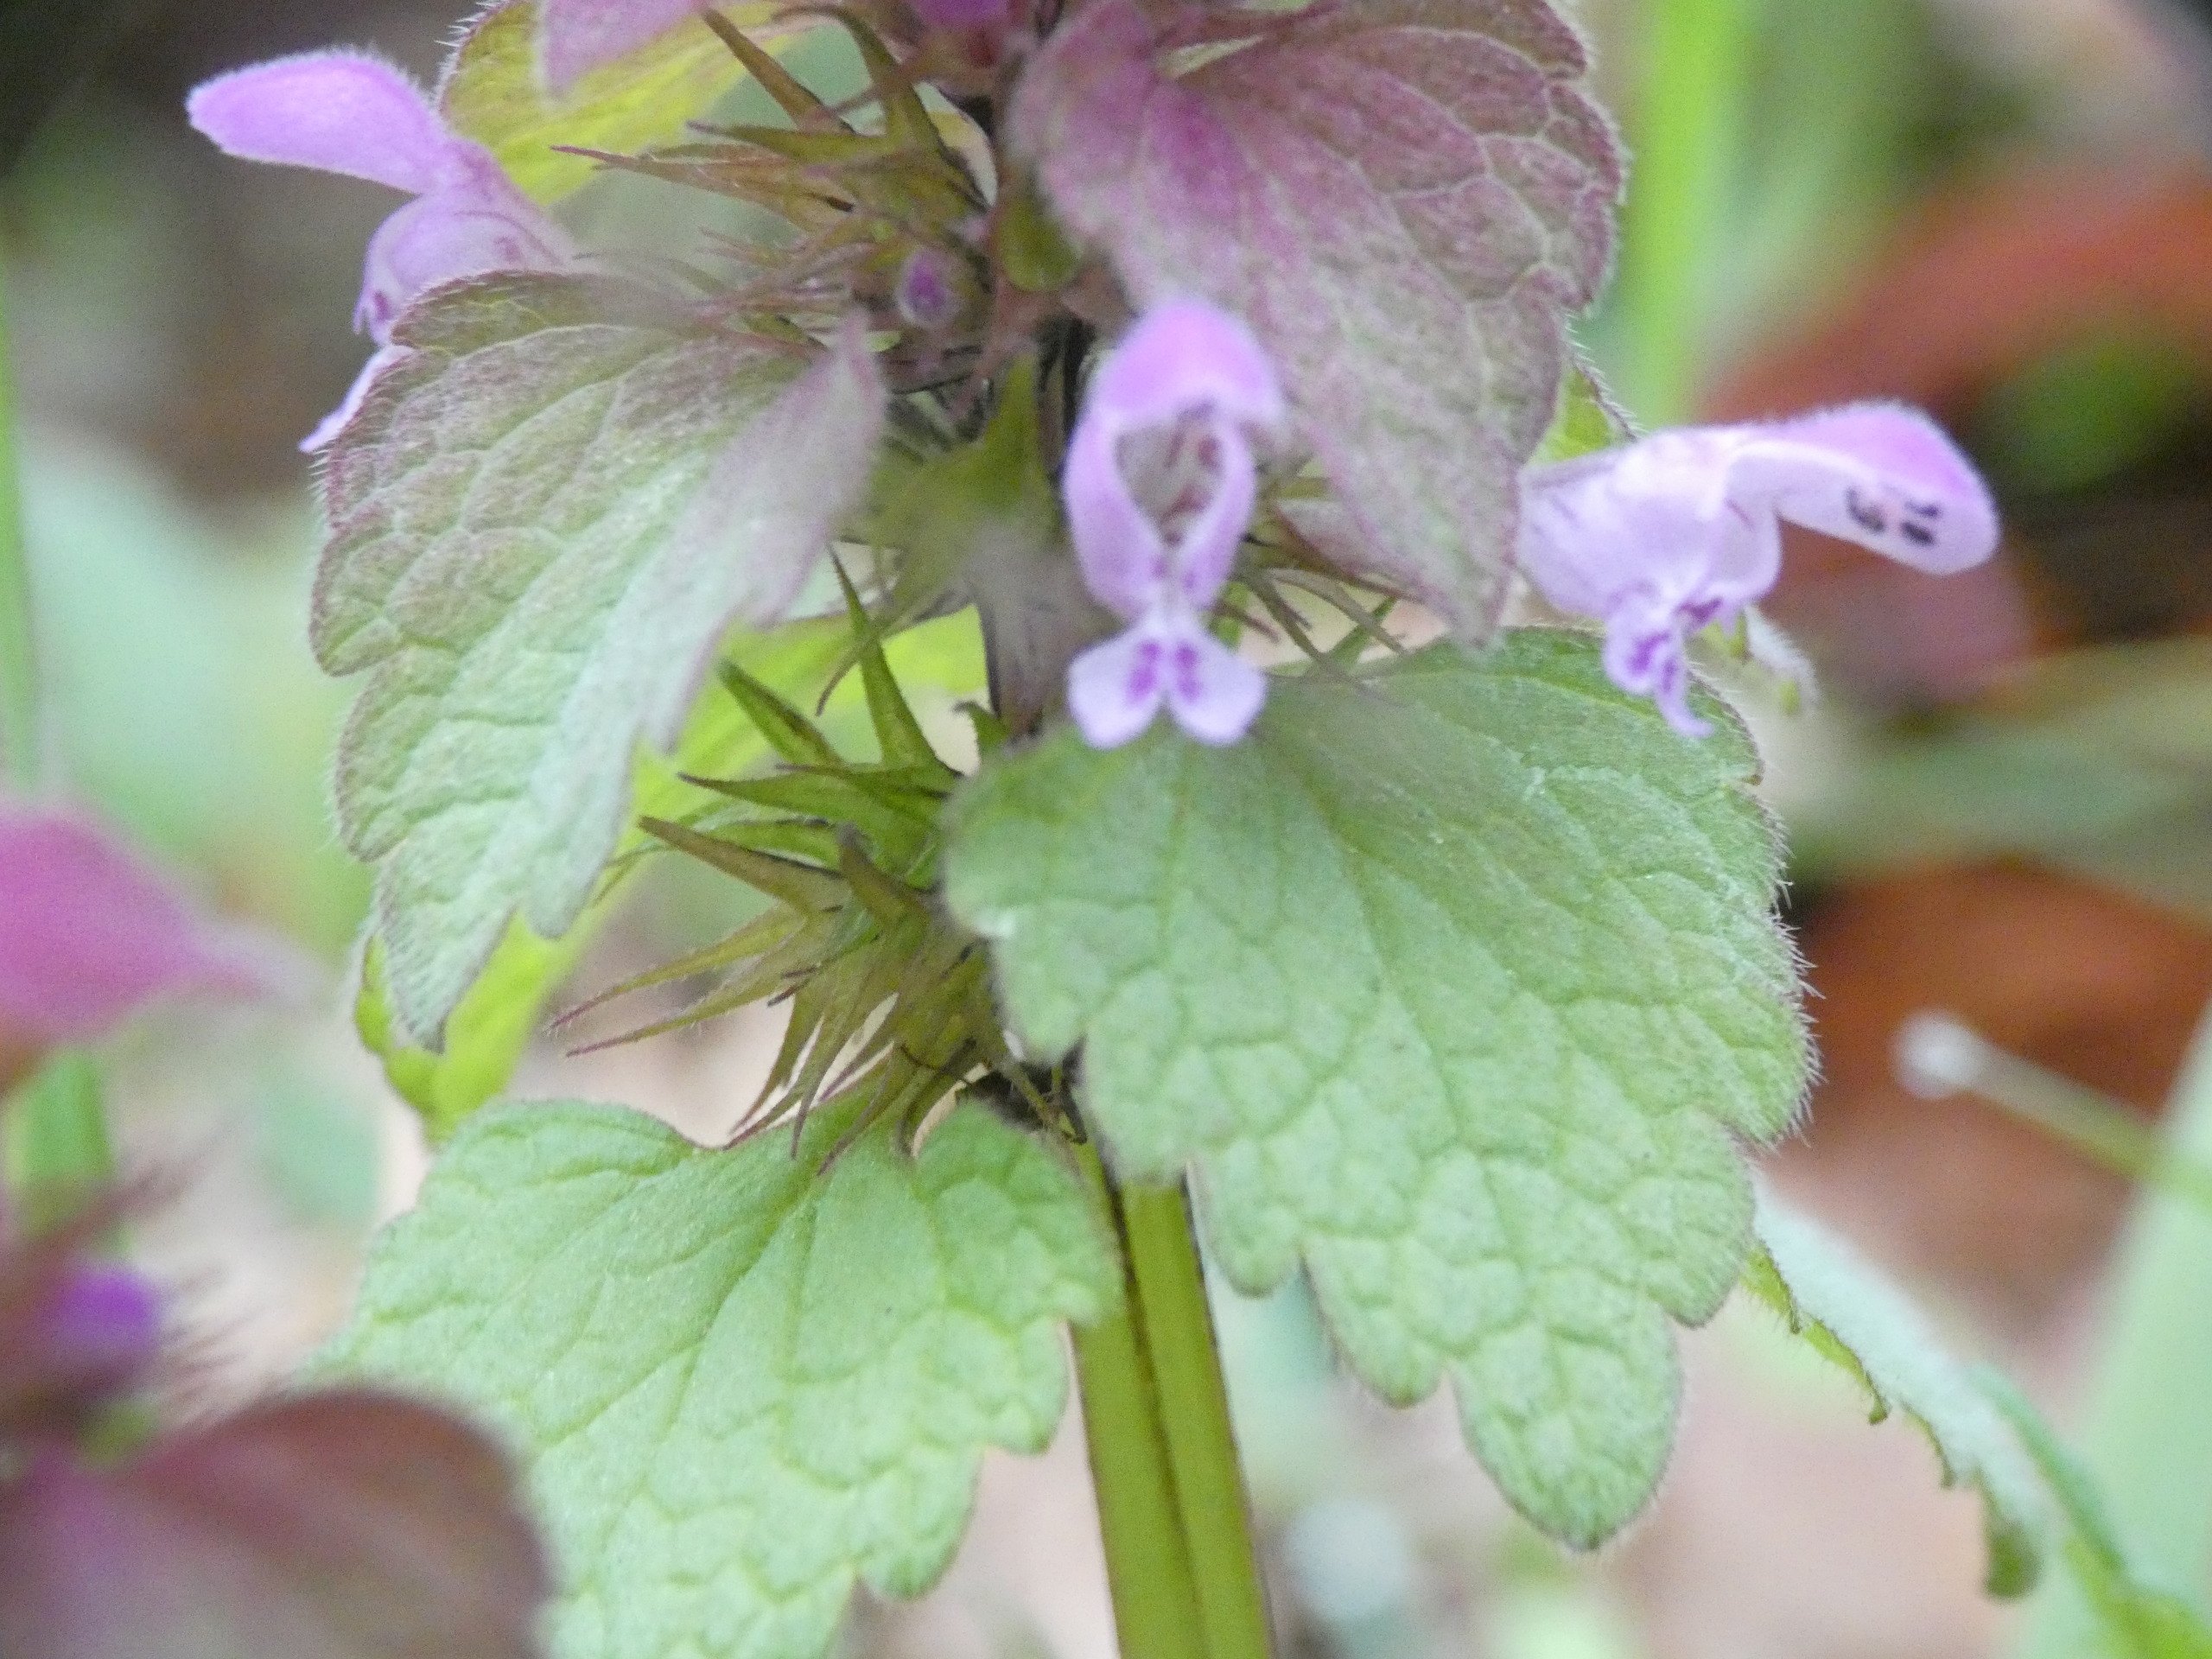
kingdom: Plantae
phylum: Tracheophyta
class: Magnoliopsida
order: Lamiales
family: Lamiaceae
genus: Lamium
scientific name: Lamium purpureum
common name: Rød tvetand
